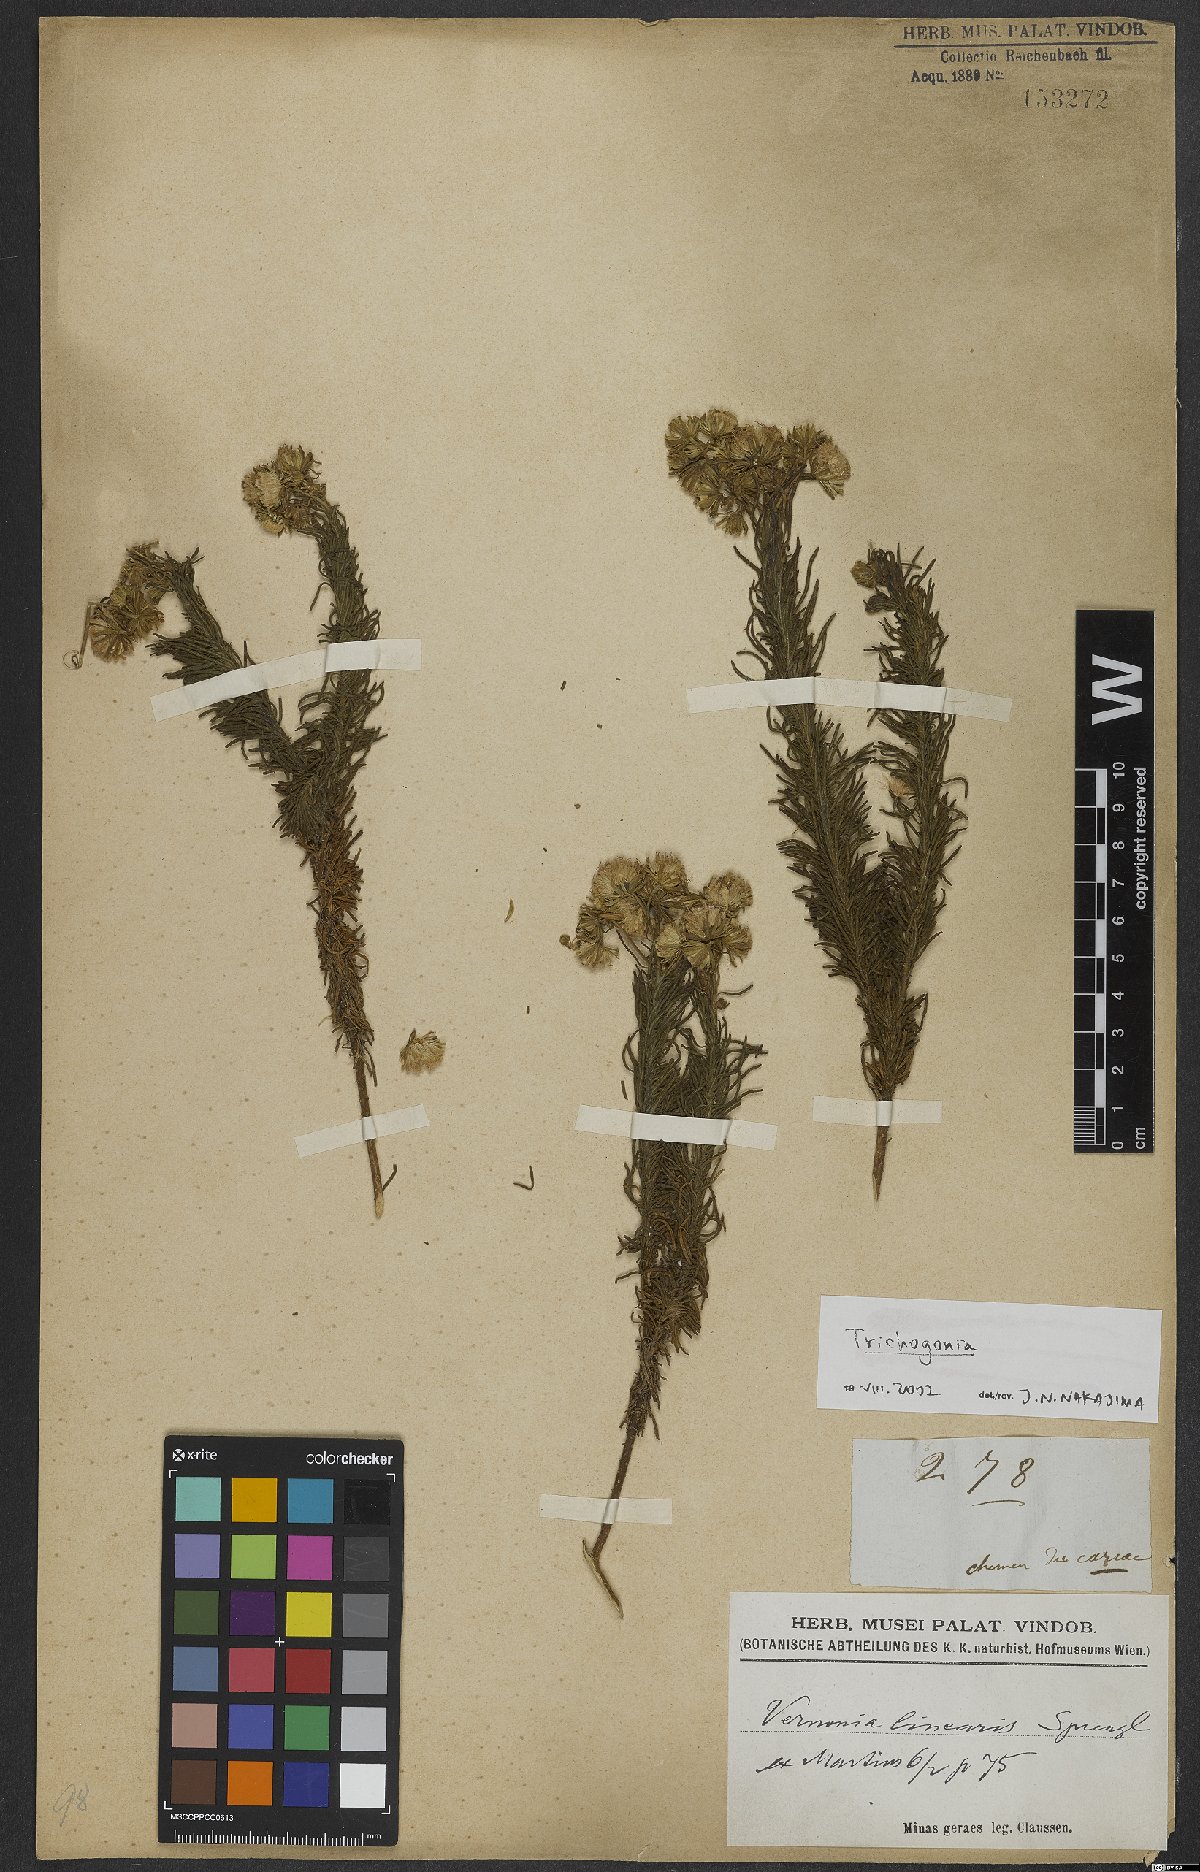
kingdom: Plantae
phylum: Tracheophyta
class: Magnoliopsida
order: Asterales
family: Asteraceae
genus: Trichogonia
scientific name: Trichogonia
